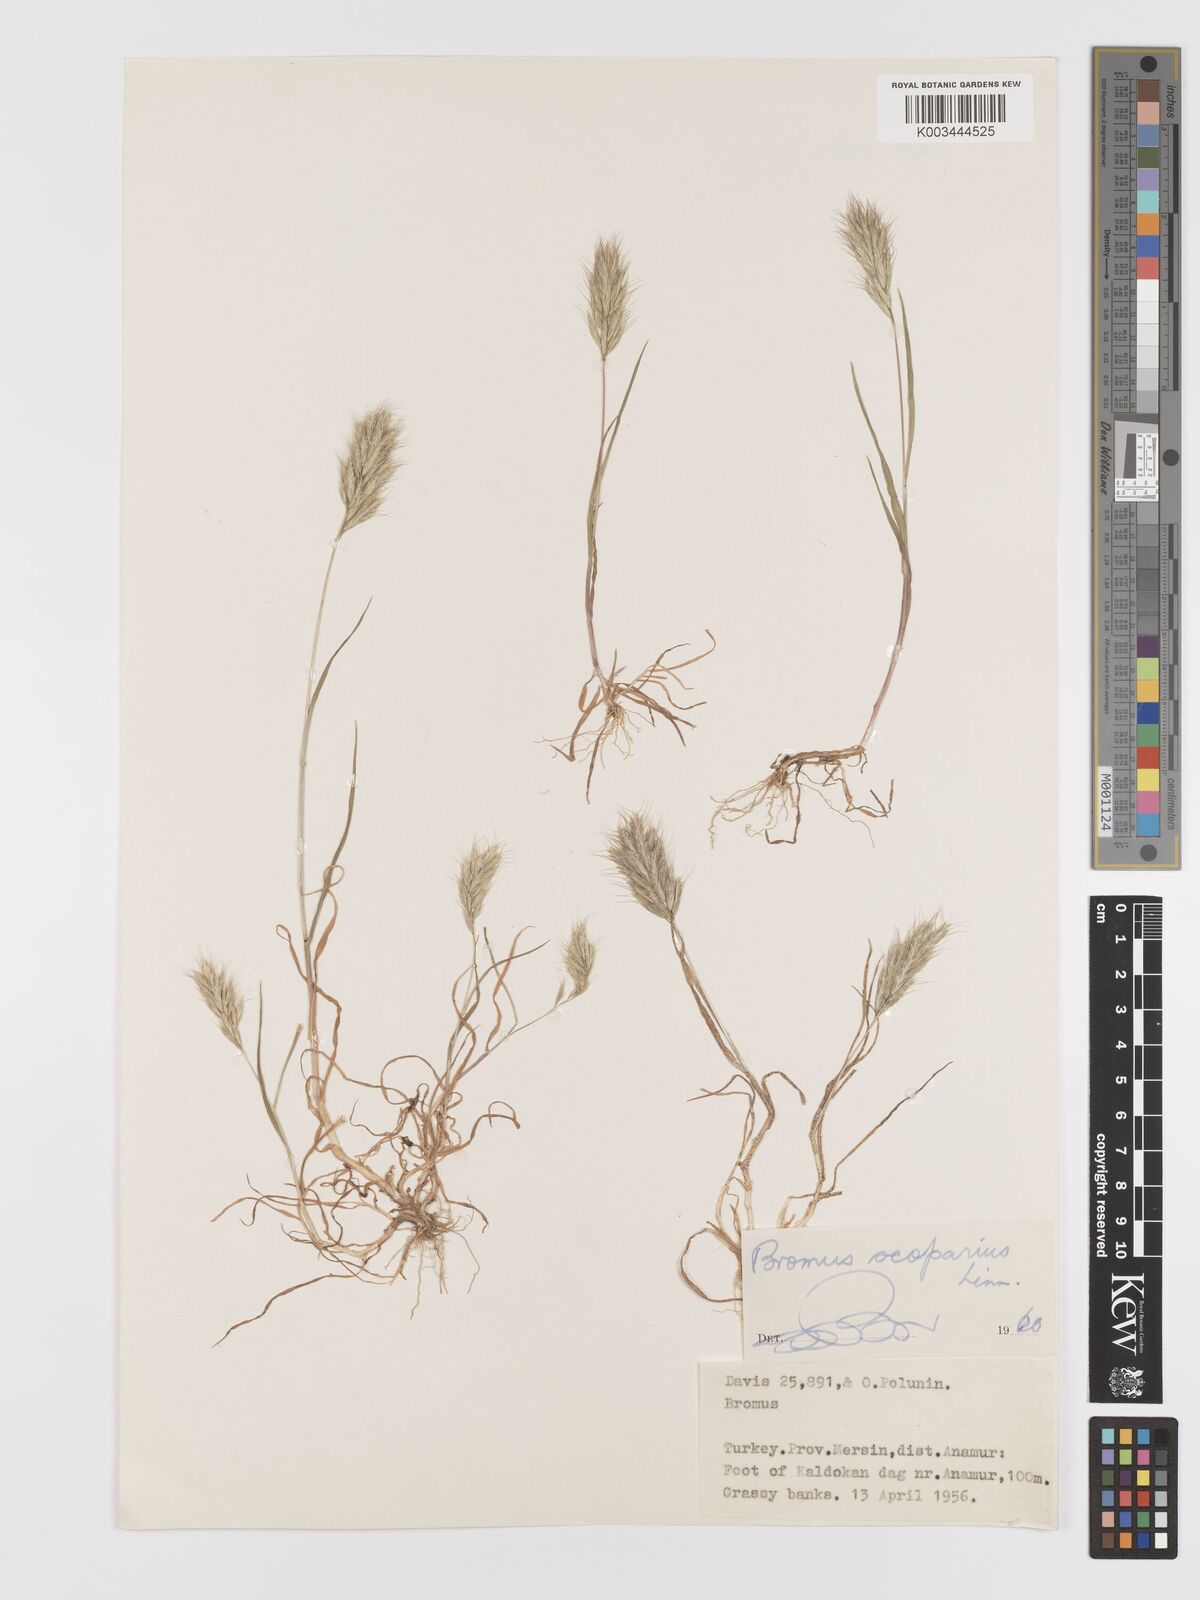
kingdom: Plantae
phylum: Tracheophyta
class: Liliopsida
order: Poales
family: Poaceae
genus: Bromus
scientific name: Bromus scoparius
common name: Broom brome
